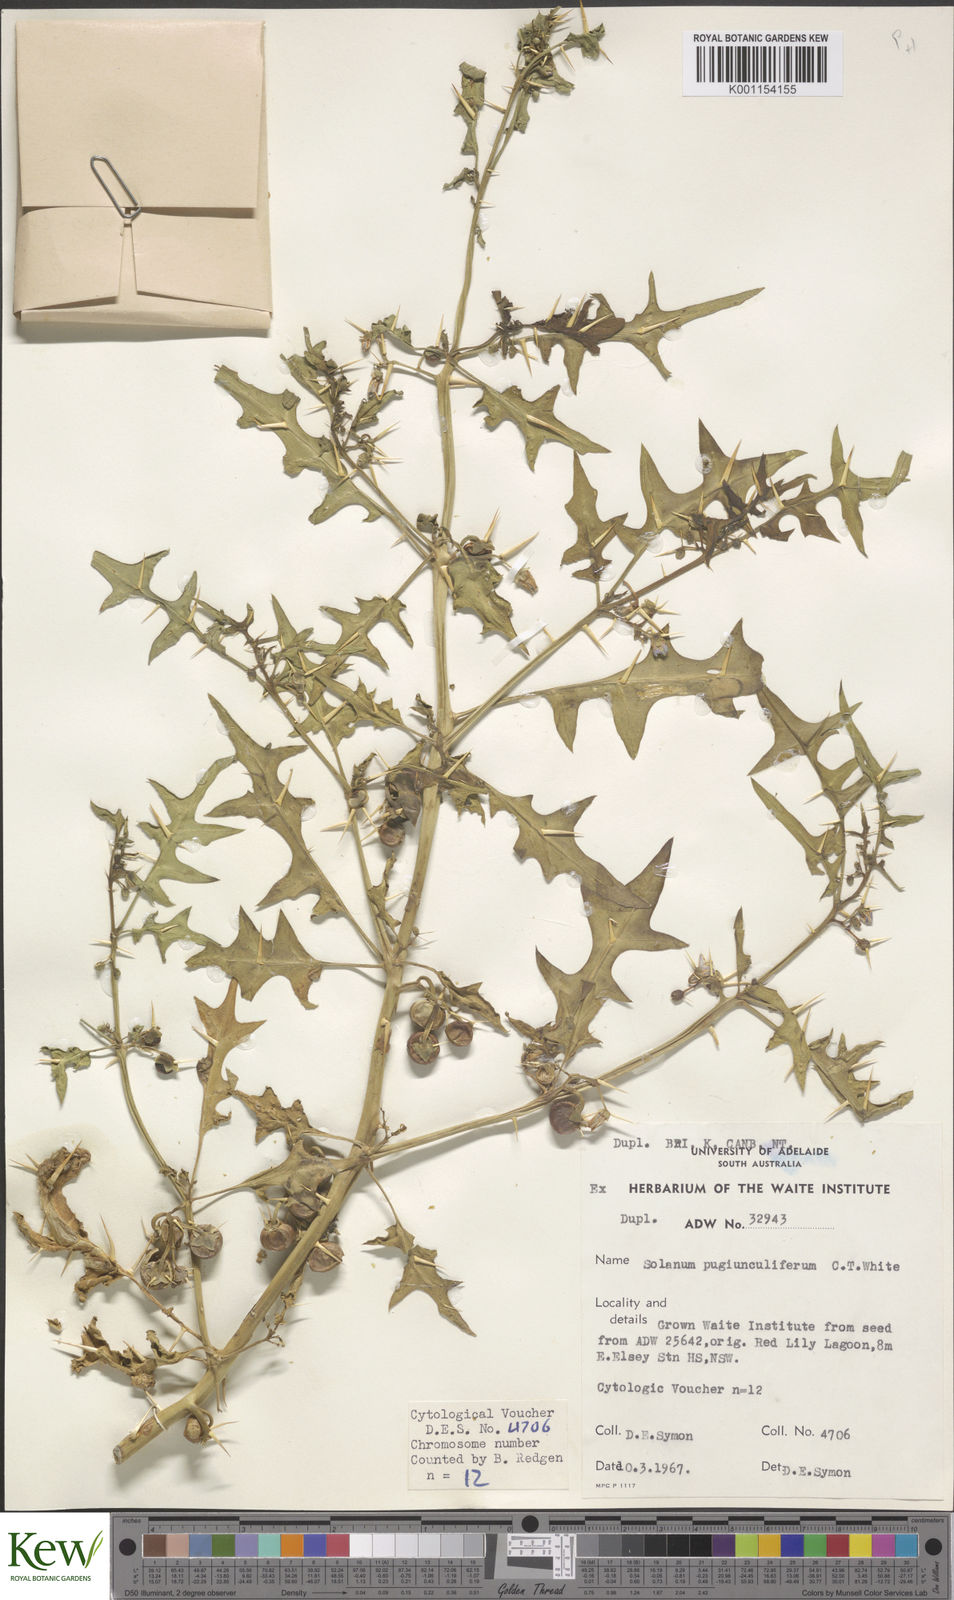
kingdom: Plantae
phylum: Tracheophyta
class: Magnoliopsida
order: Solanales
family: Solanaceae
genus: Solanum
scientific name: Solanum pugiunculiferum
